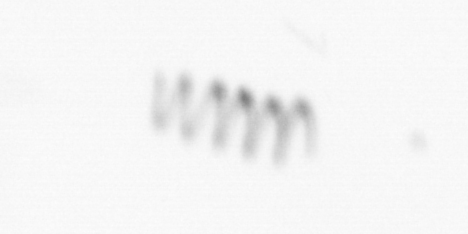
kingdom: Chromista
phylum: Ochrophyta
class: Bacillariophyceae
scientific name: Bacillariophyceae
